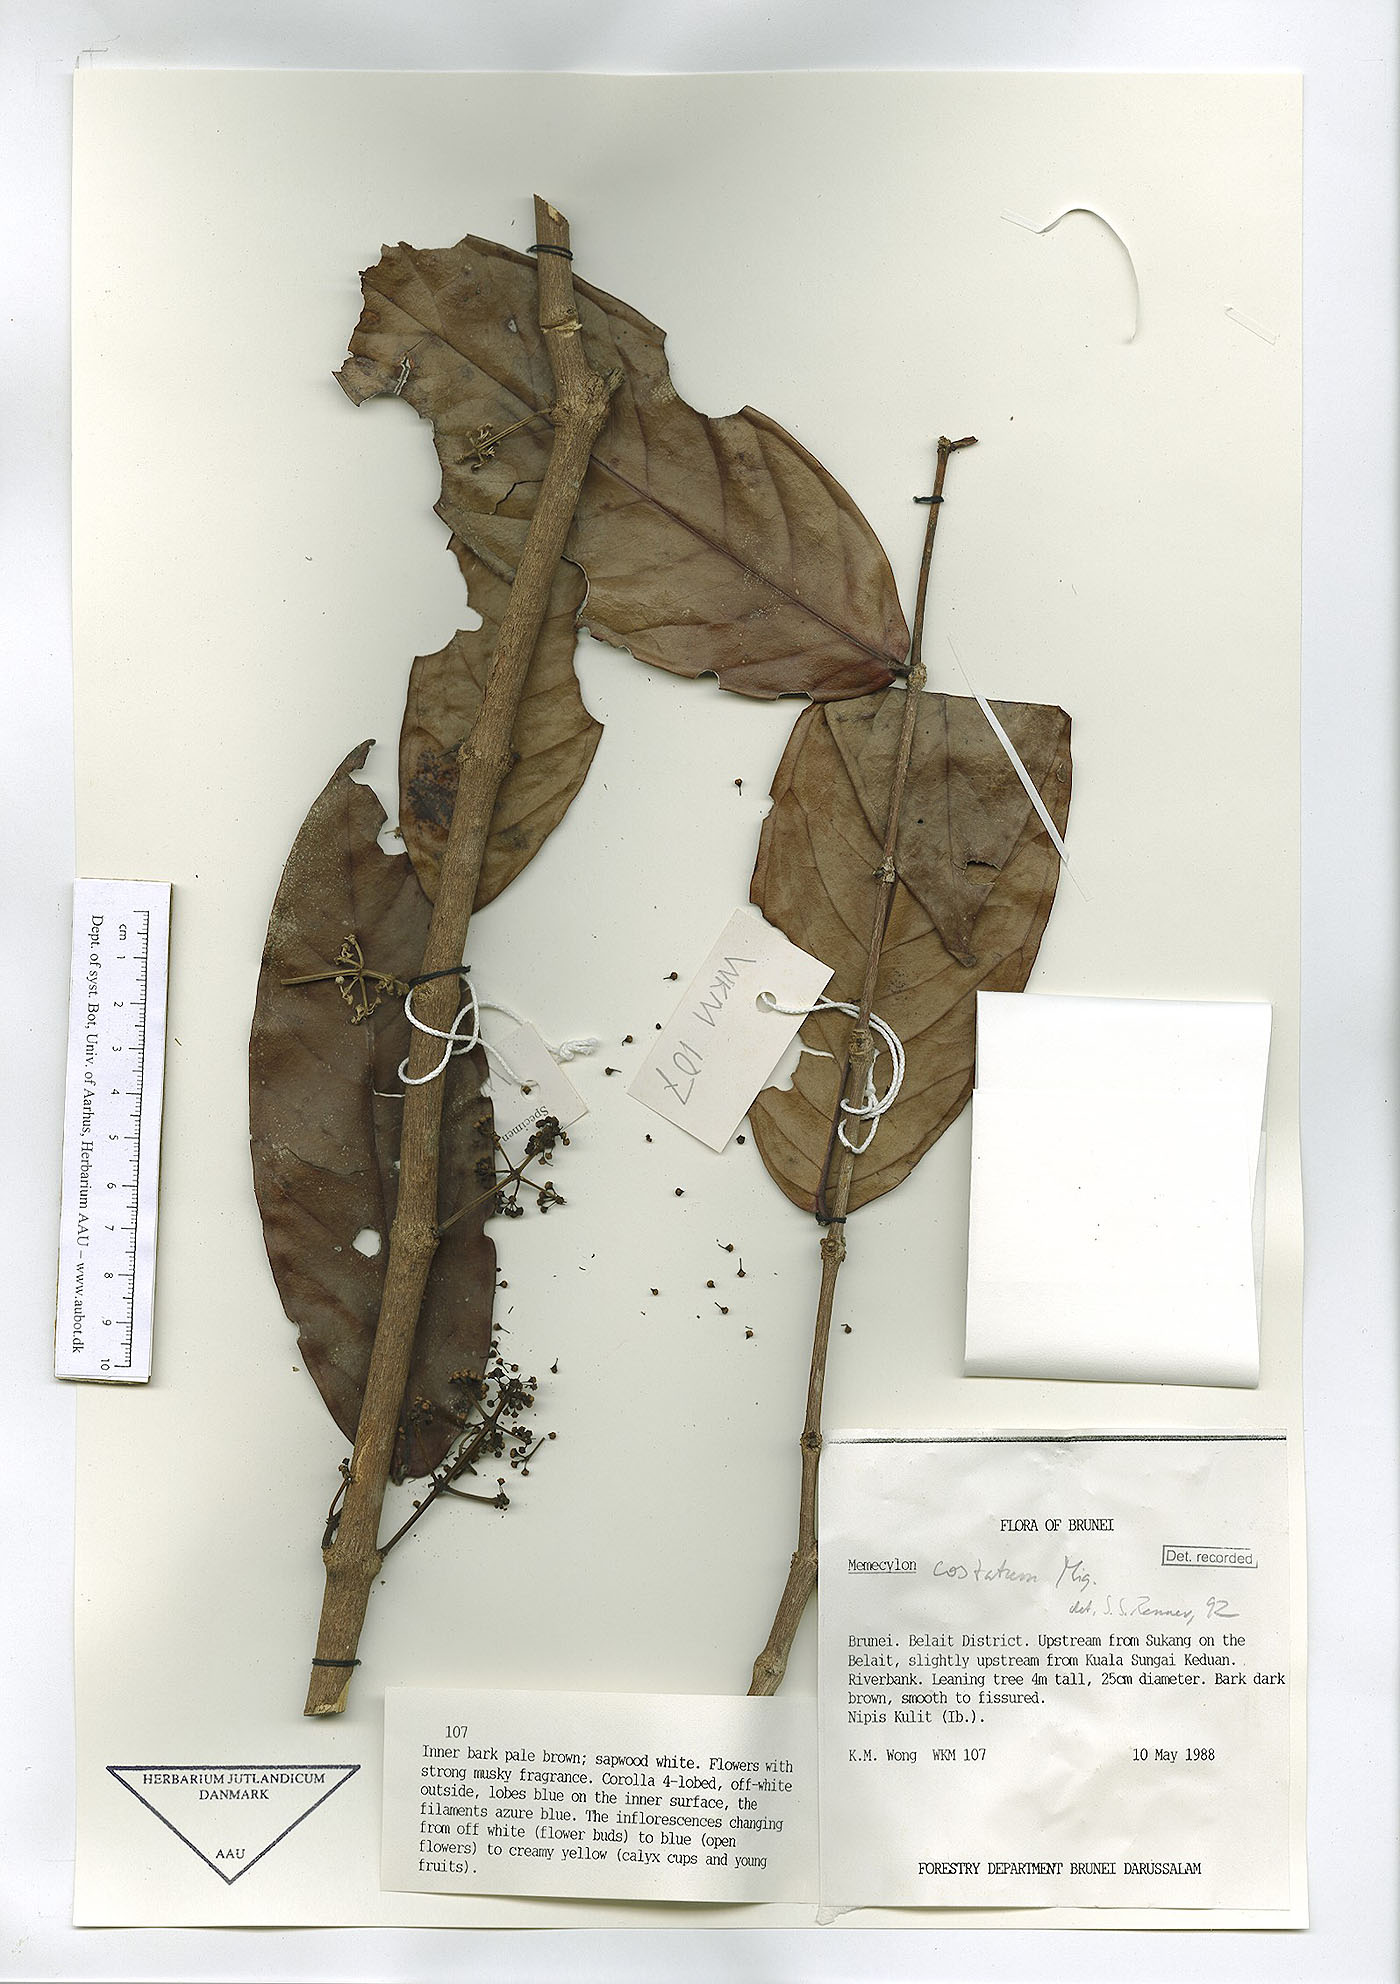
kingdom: Plantae
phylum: Tracheophyta
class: Magnoliopsida
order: Myrtales
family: Melastomataceae
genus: Memecylon
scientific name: Memecylon paniculatum
